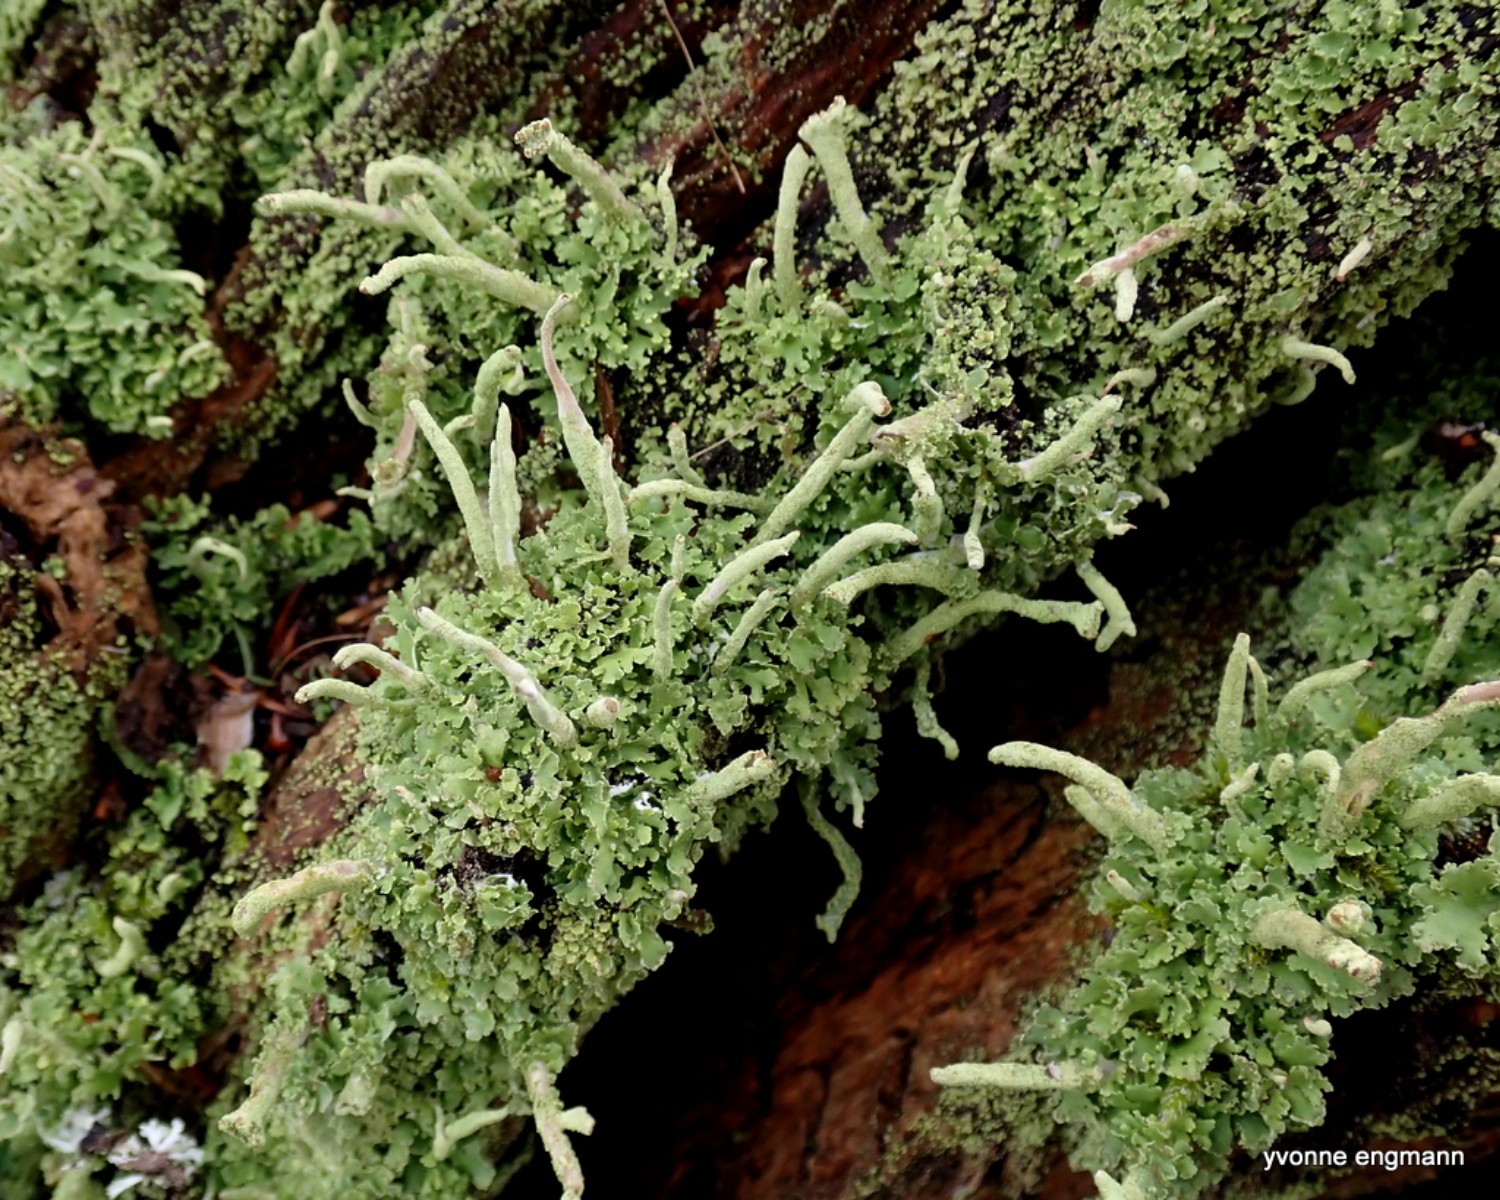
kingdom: Fungi
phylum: Ascomycota
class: Lecanoromycetes
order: Lecanorales
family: Cladoniaceae
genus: Cladonia
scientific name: Cladonia coniocraea
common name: træfods-bægerlav
